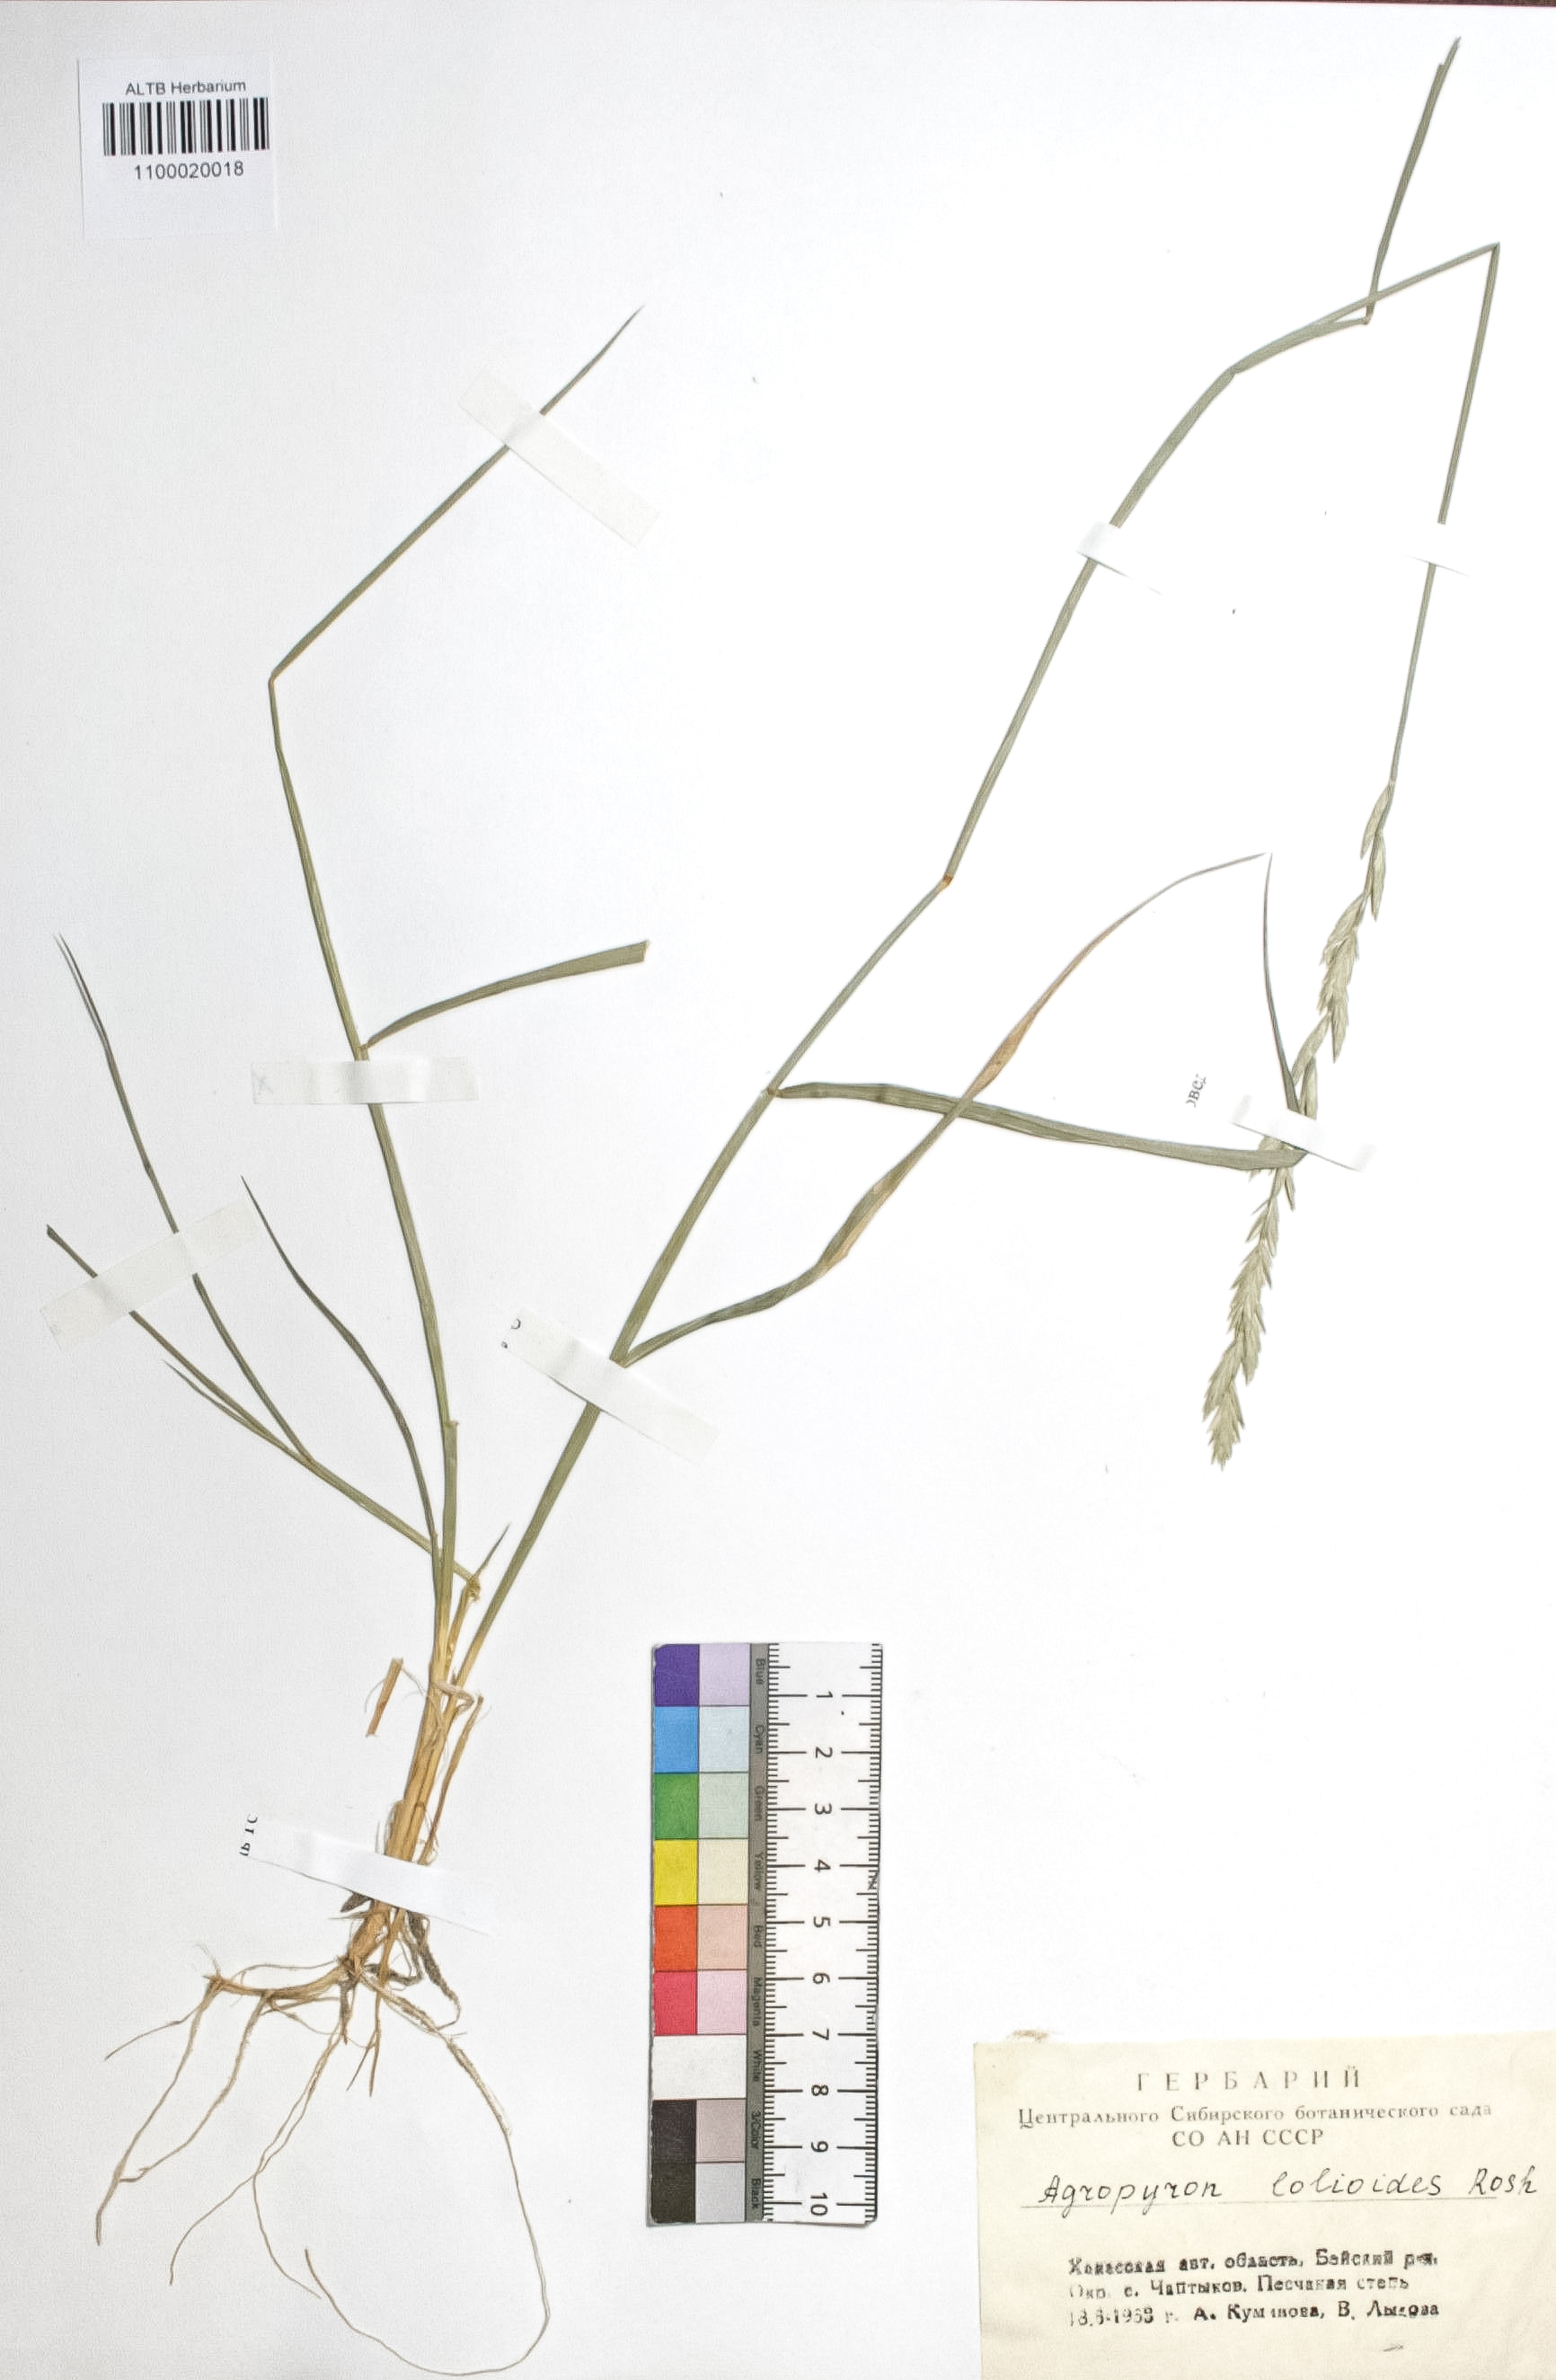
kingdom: Plantae
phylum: Tracheophyta
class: Liliopsida
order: Poales
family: Poaceae
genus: Agropyron
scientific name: Agropyron lolioides
